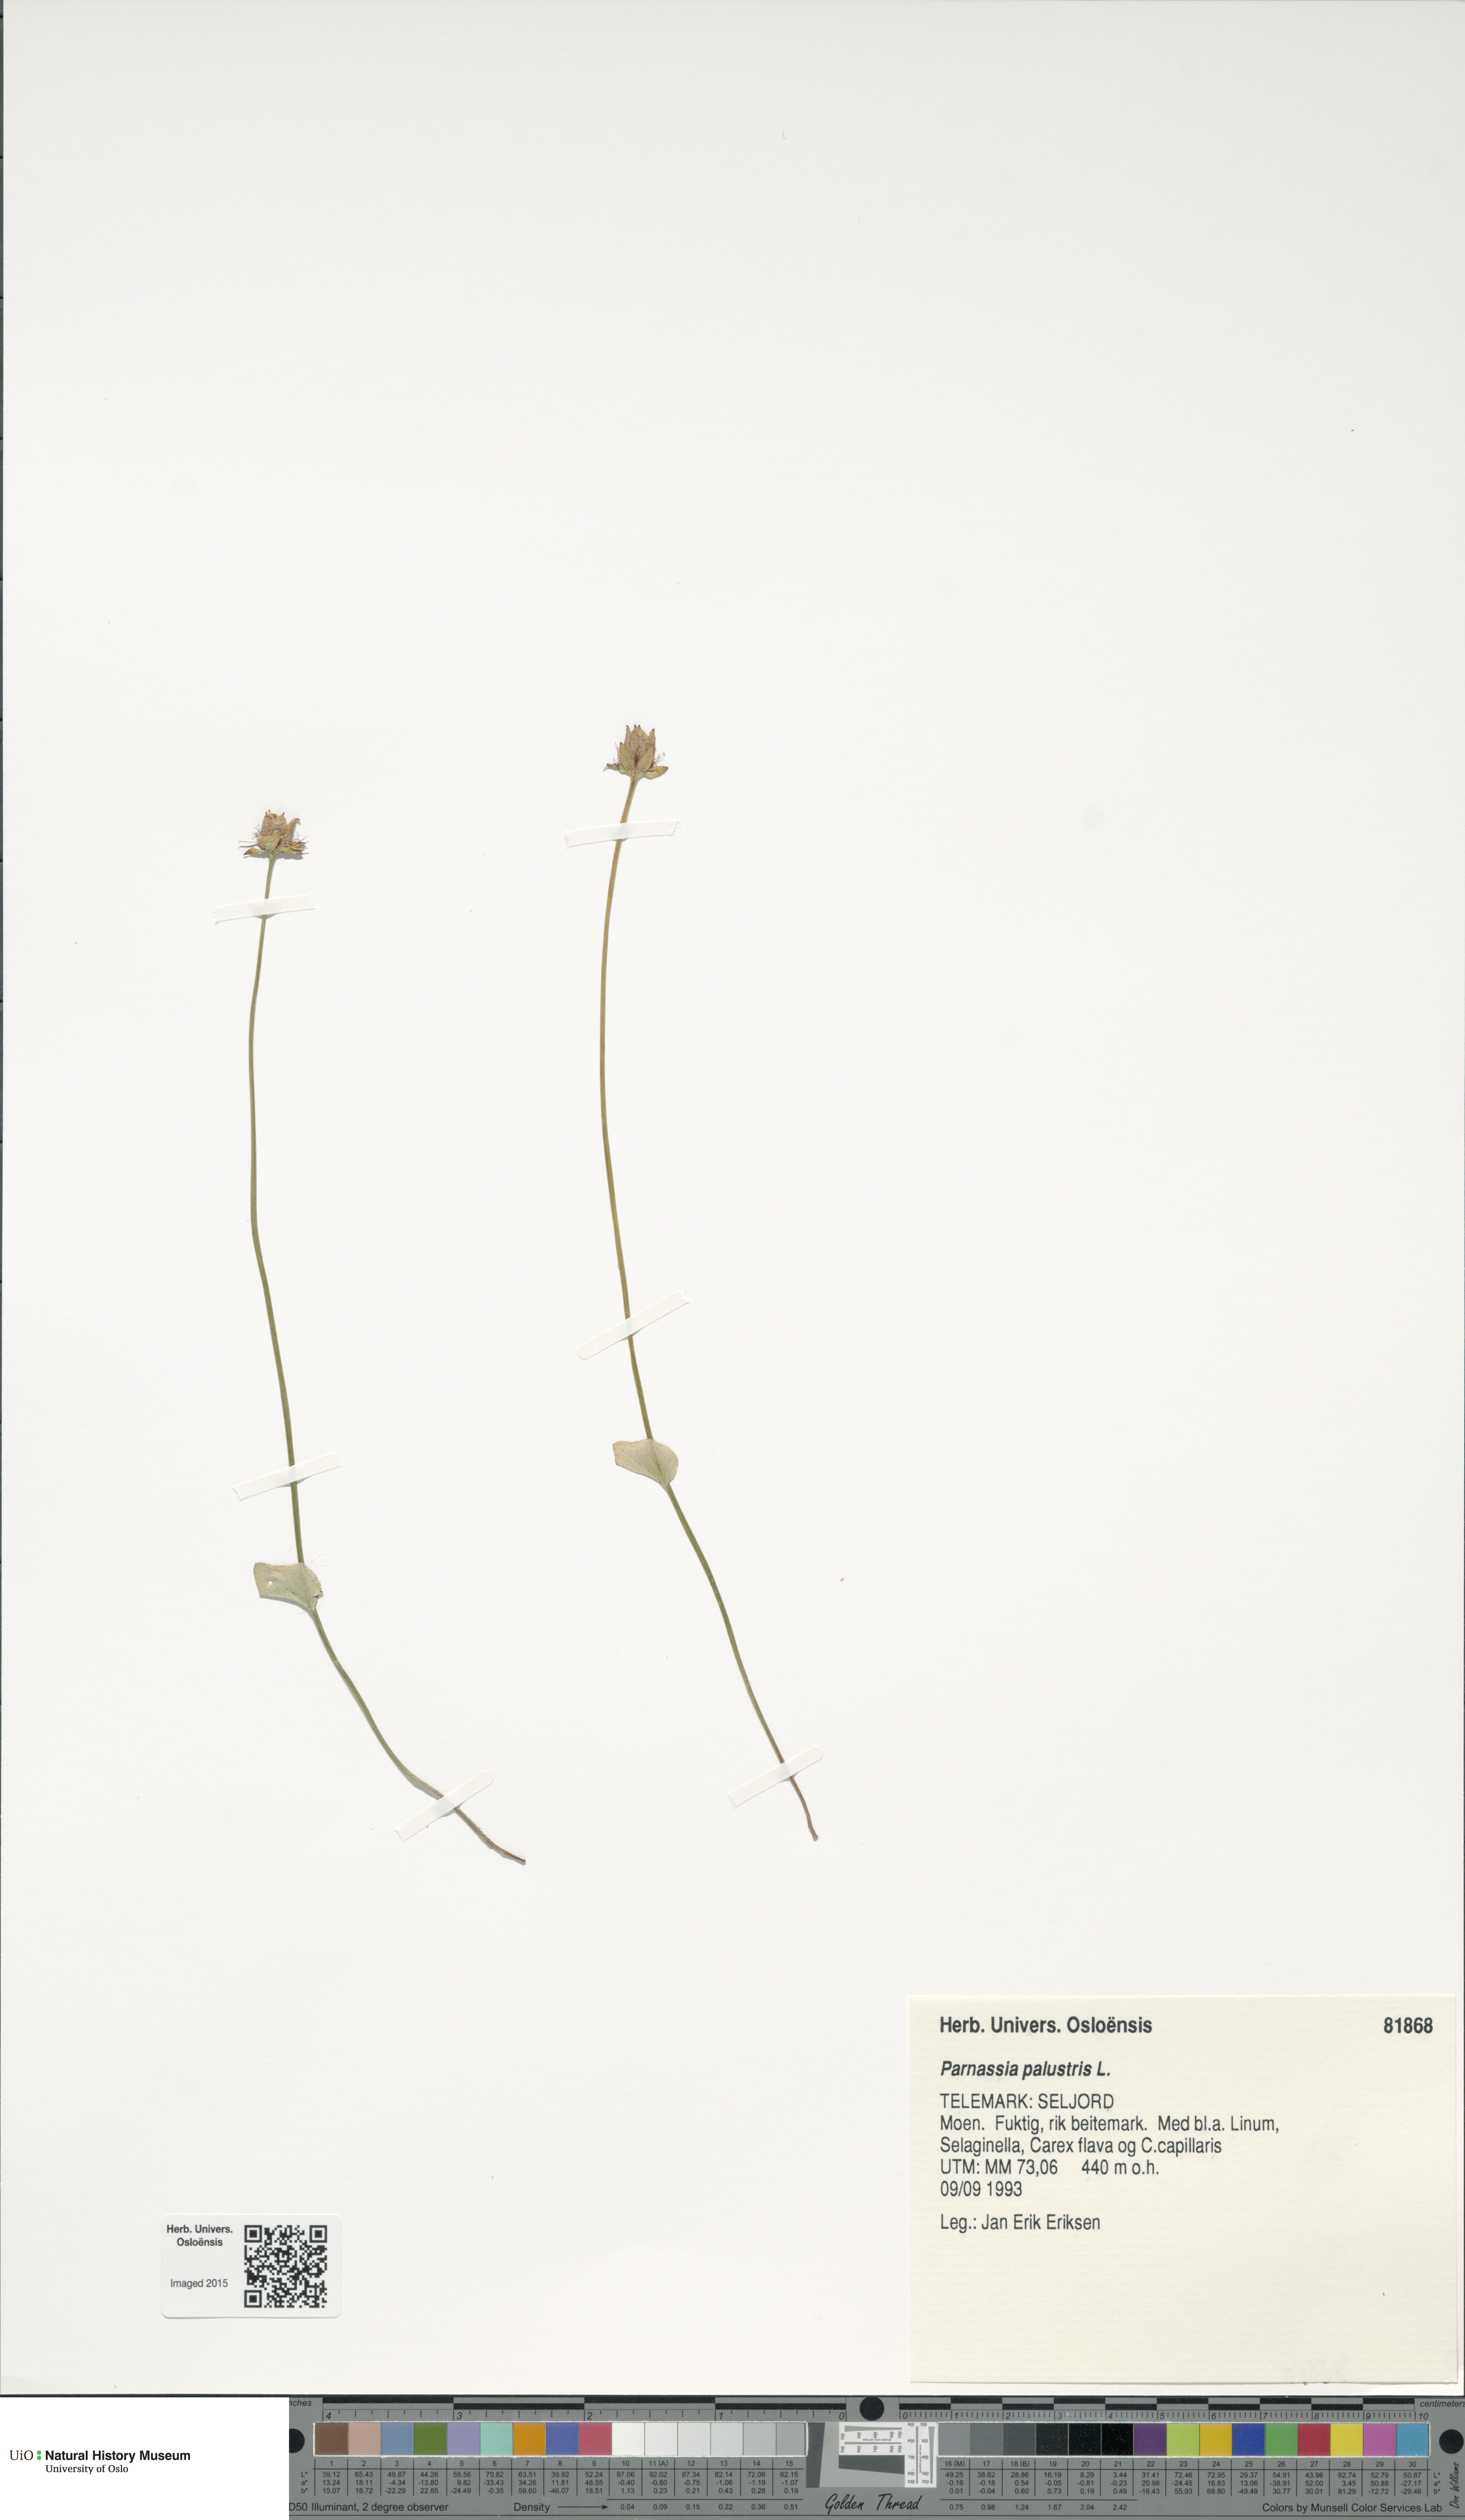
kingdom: Plantae
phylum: Tracheophyta
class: Magnoliopsida
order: Celastrales
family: Parnassiaceae
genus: Parnassia
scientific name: Parnassia palustris
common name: Grass-of-parnassus
